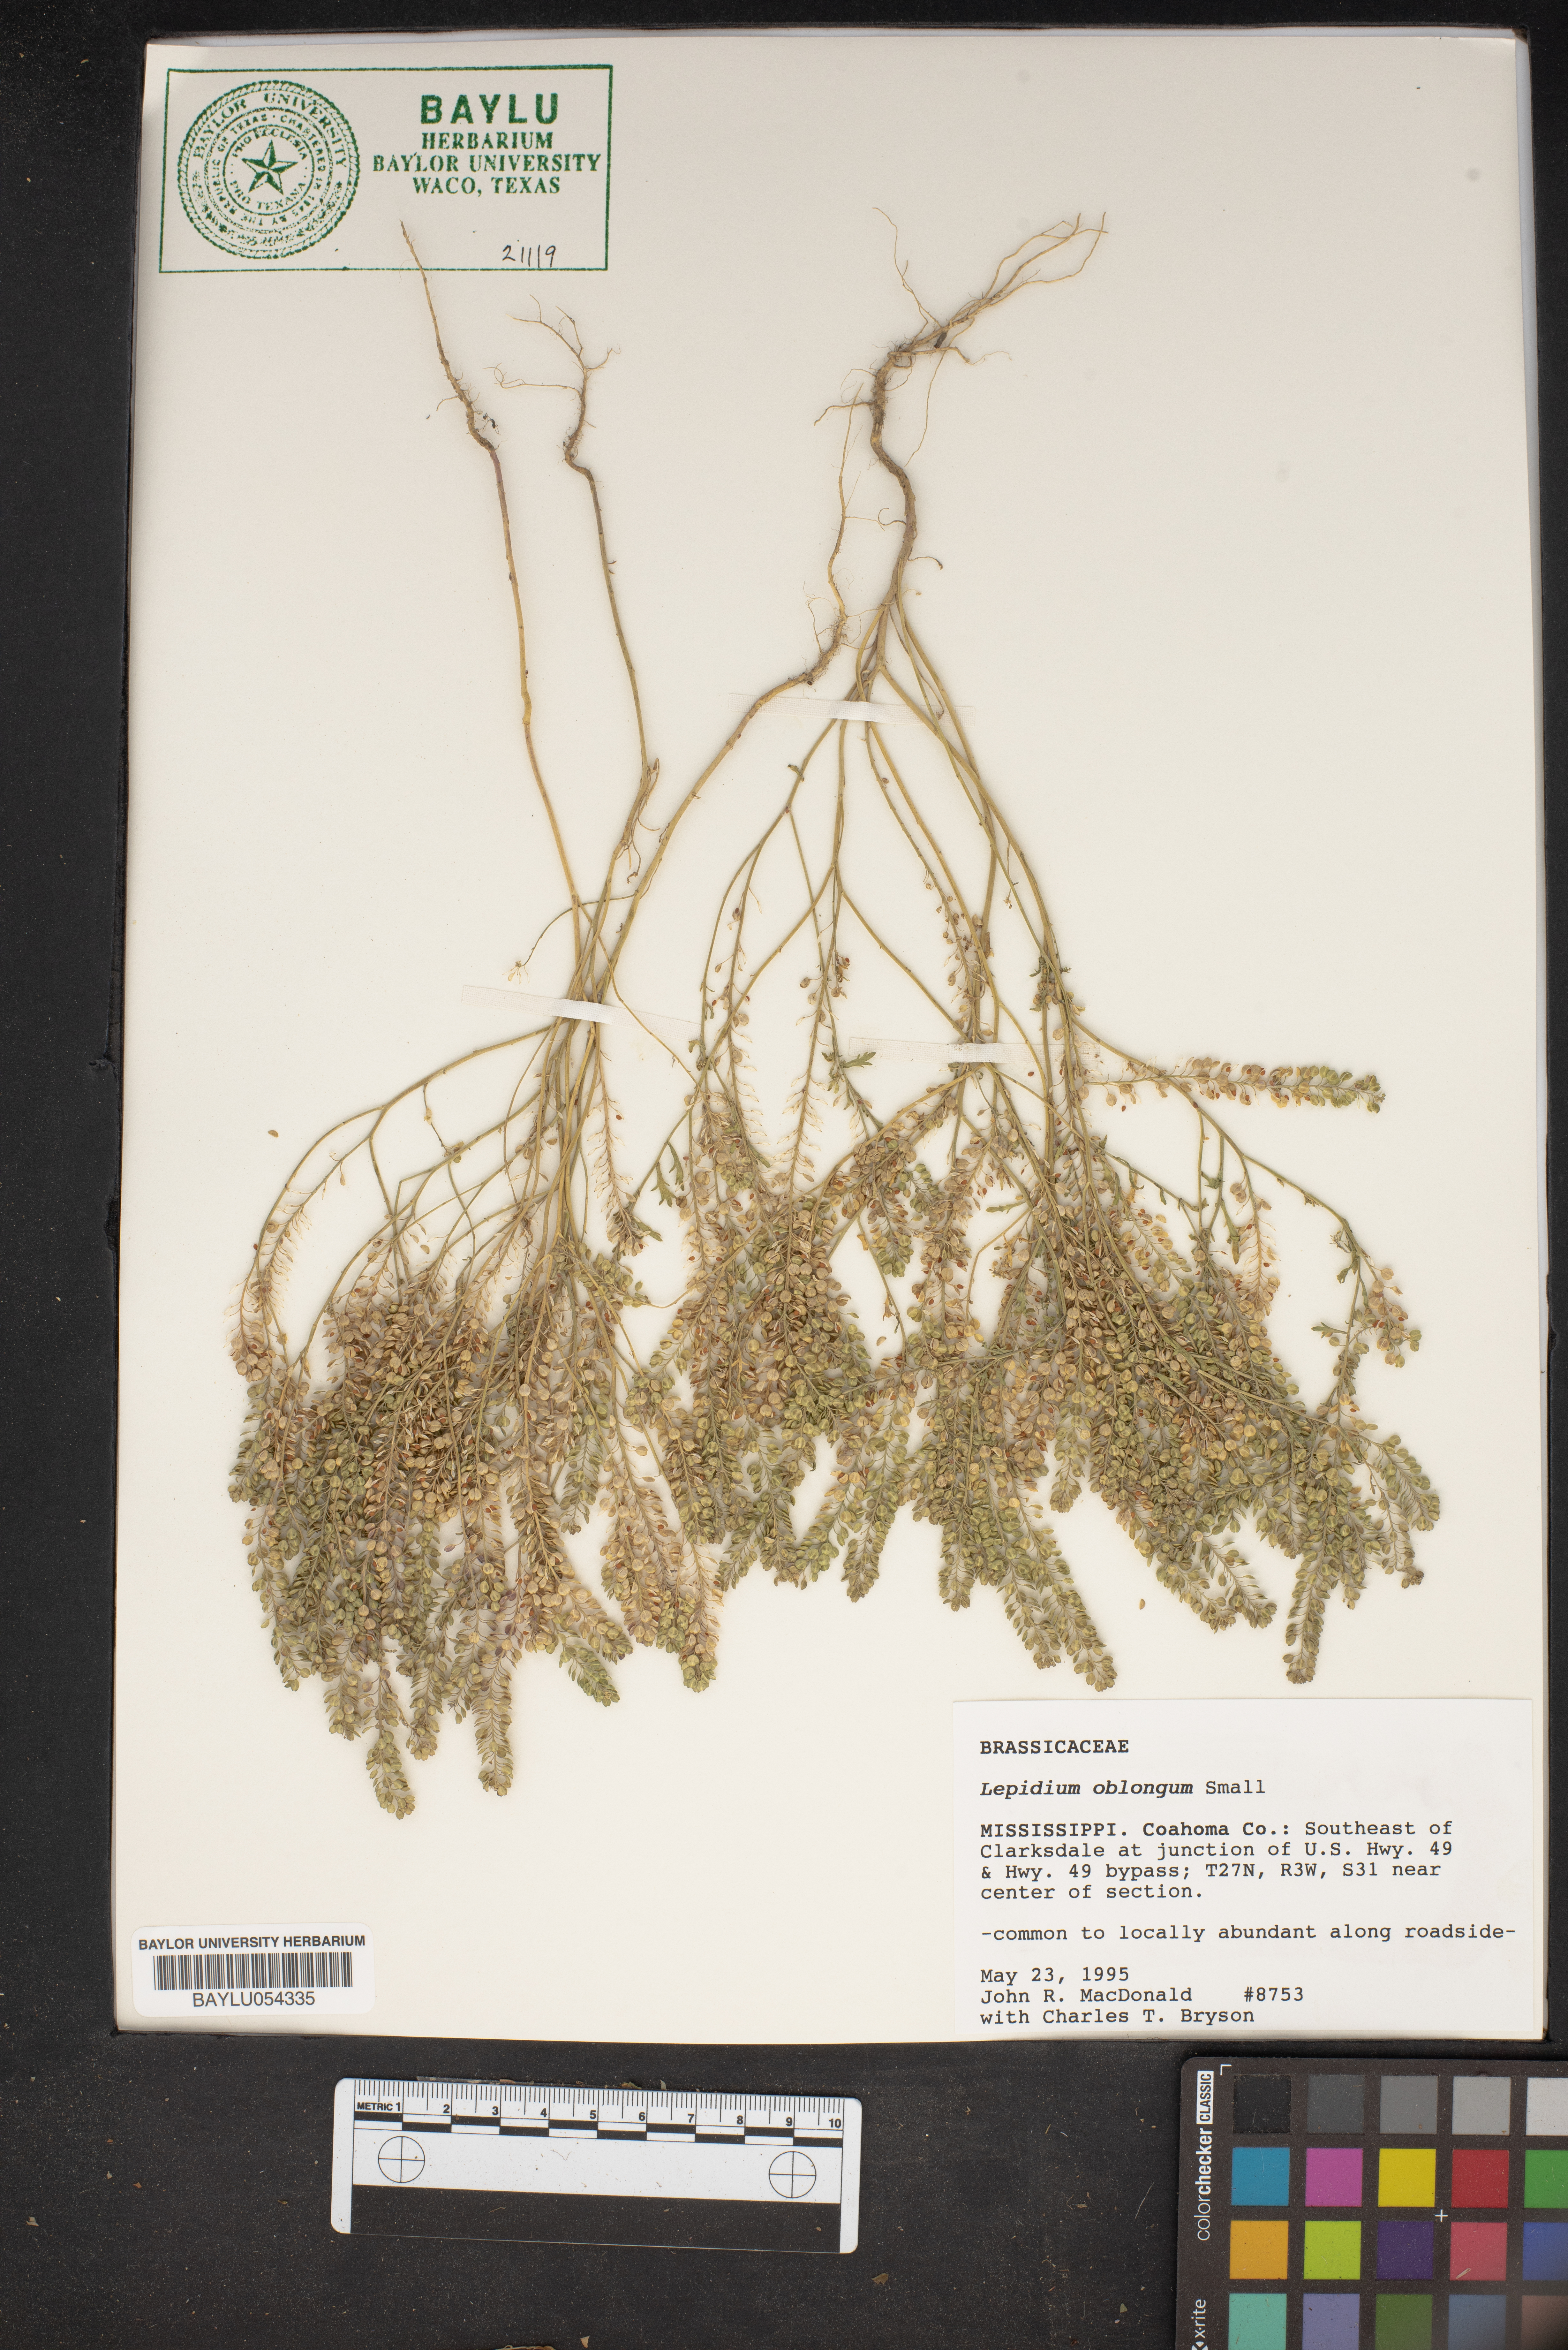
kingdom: Plantae
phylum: Tracheophyta
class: Magnoliopsida
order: Brassicales
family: Brassicaceae
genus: Lepidium
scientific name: Lepidium oblongum
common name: Veiny pepperweed
